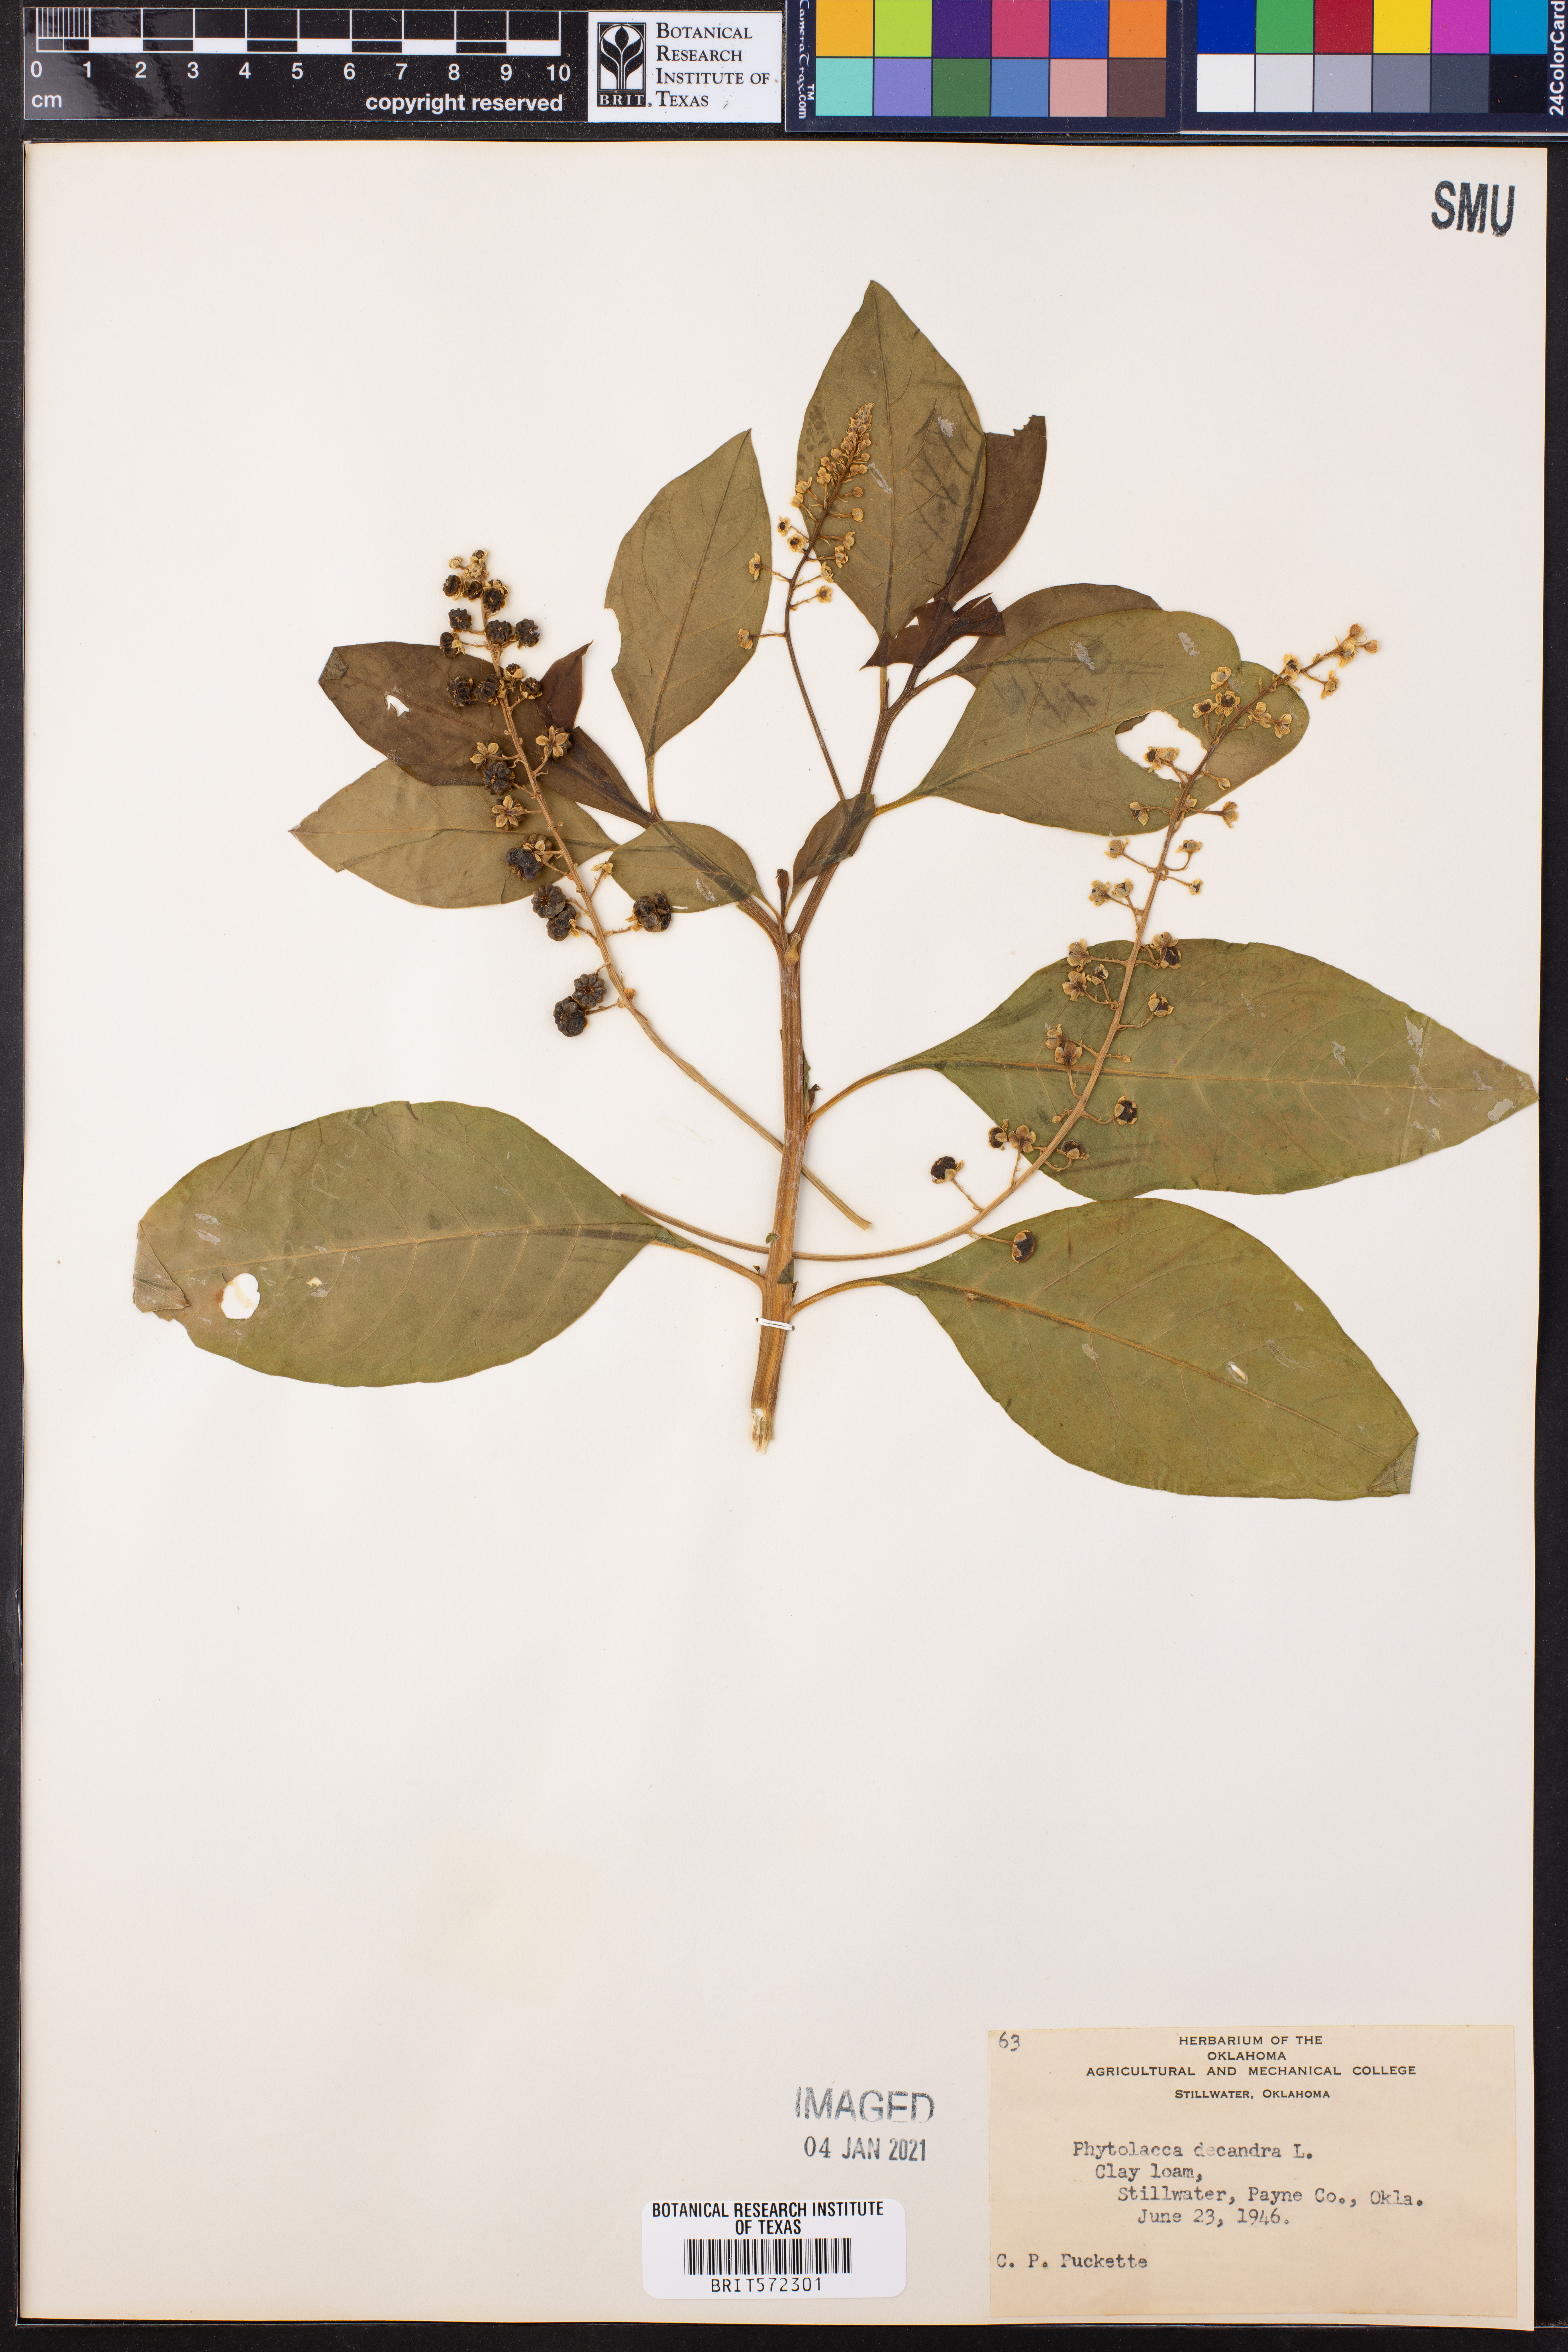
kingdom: Plantae
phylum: Tracheophyta
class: Magnoliopsida
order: Caryophyllales
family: Phytolaccaceae
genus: Phytolacca
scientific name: Phytolacca americana
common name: American pokeweed
